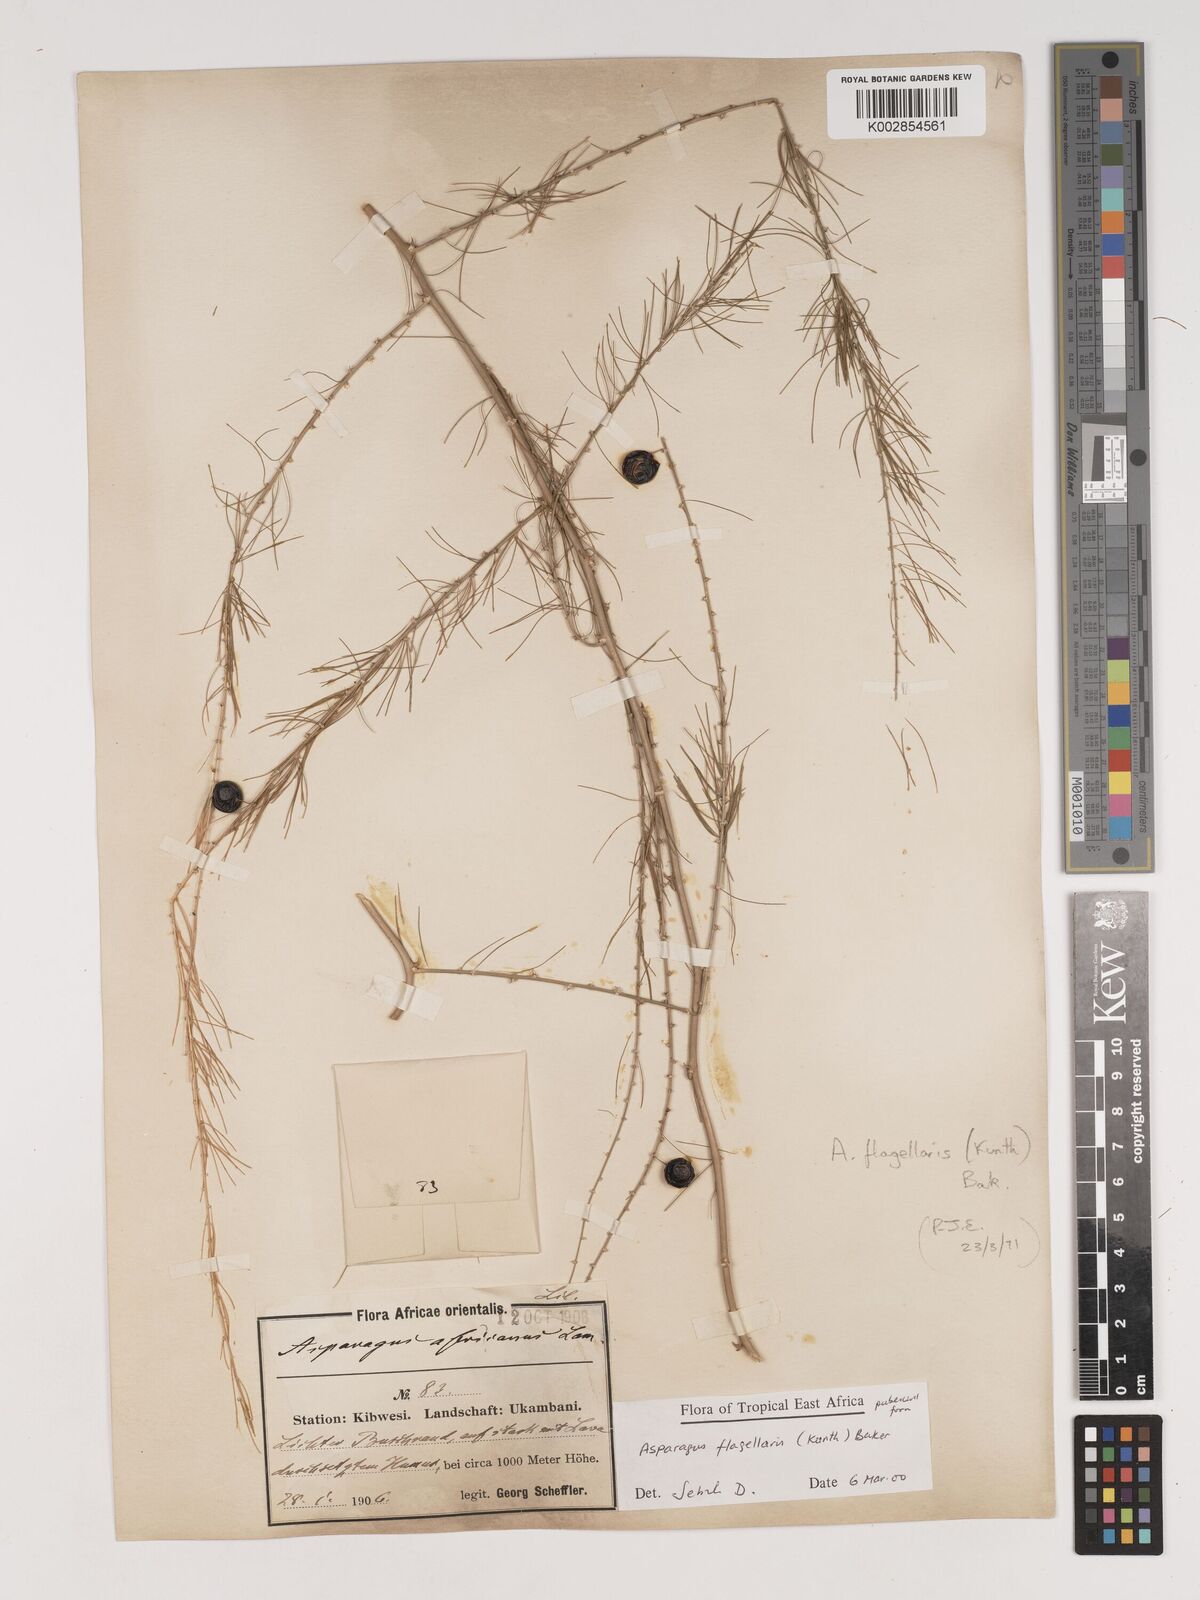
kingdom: Plantae
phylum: Tracheophyta
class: Liliopsida
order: Asparagales
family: Asparagaceae
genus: Asparagus
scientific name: Asparagus flagellaris
